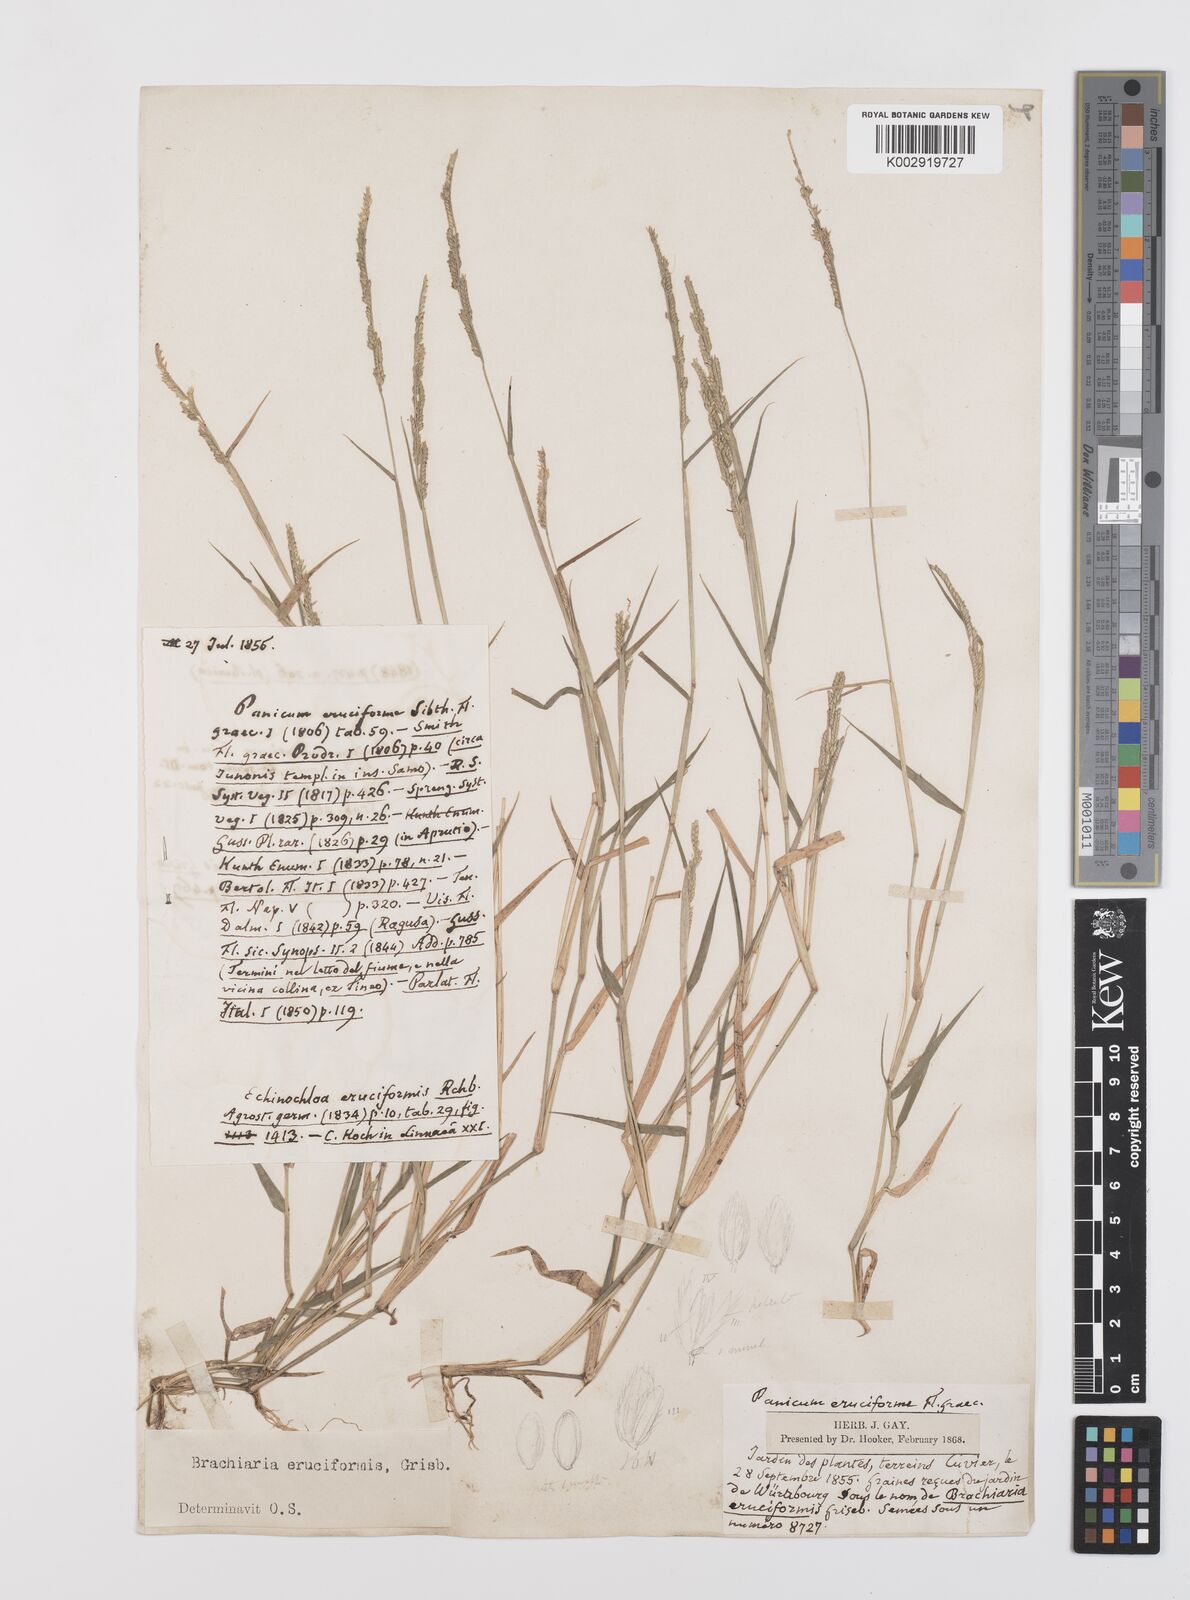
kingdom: Plantae
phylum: Tracheophyta
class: Liliopsida
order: Poales
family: Poaceae
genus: Moorochloa
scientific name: Moorochloa eruciformis
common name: Sweet signalgrass
